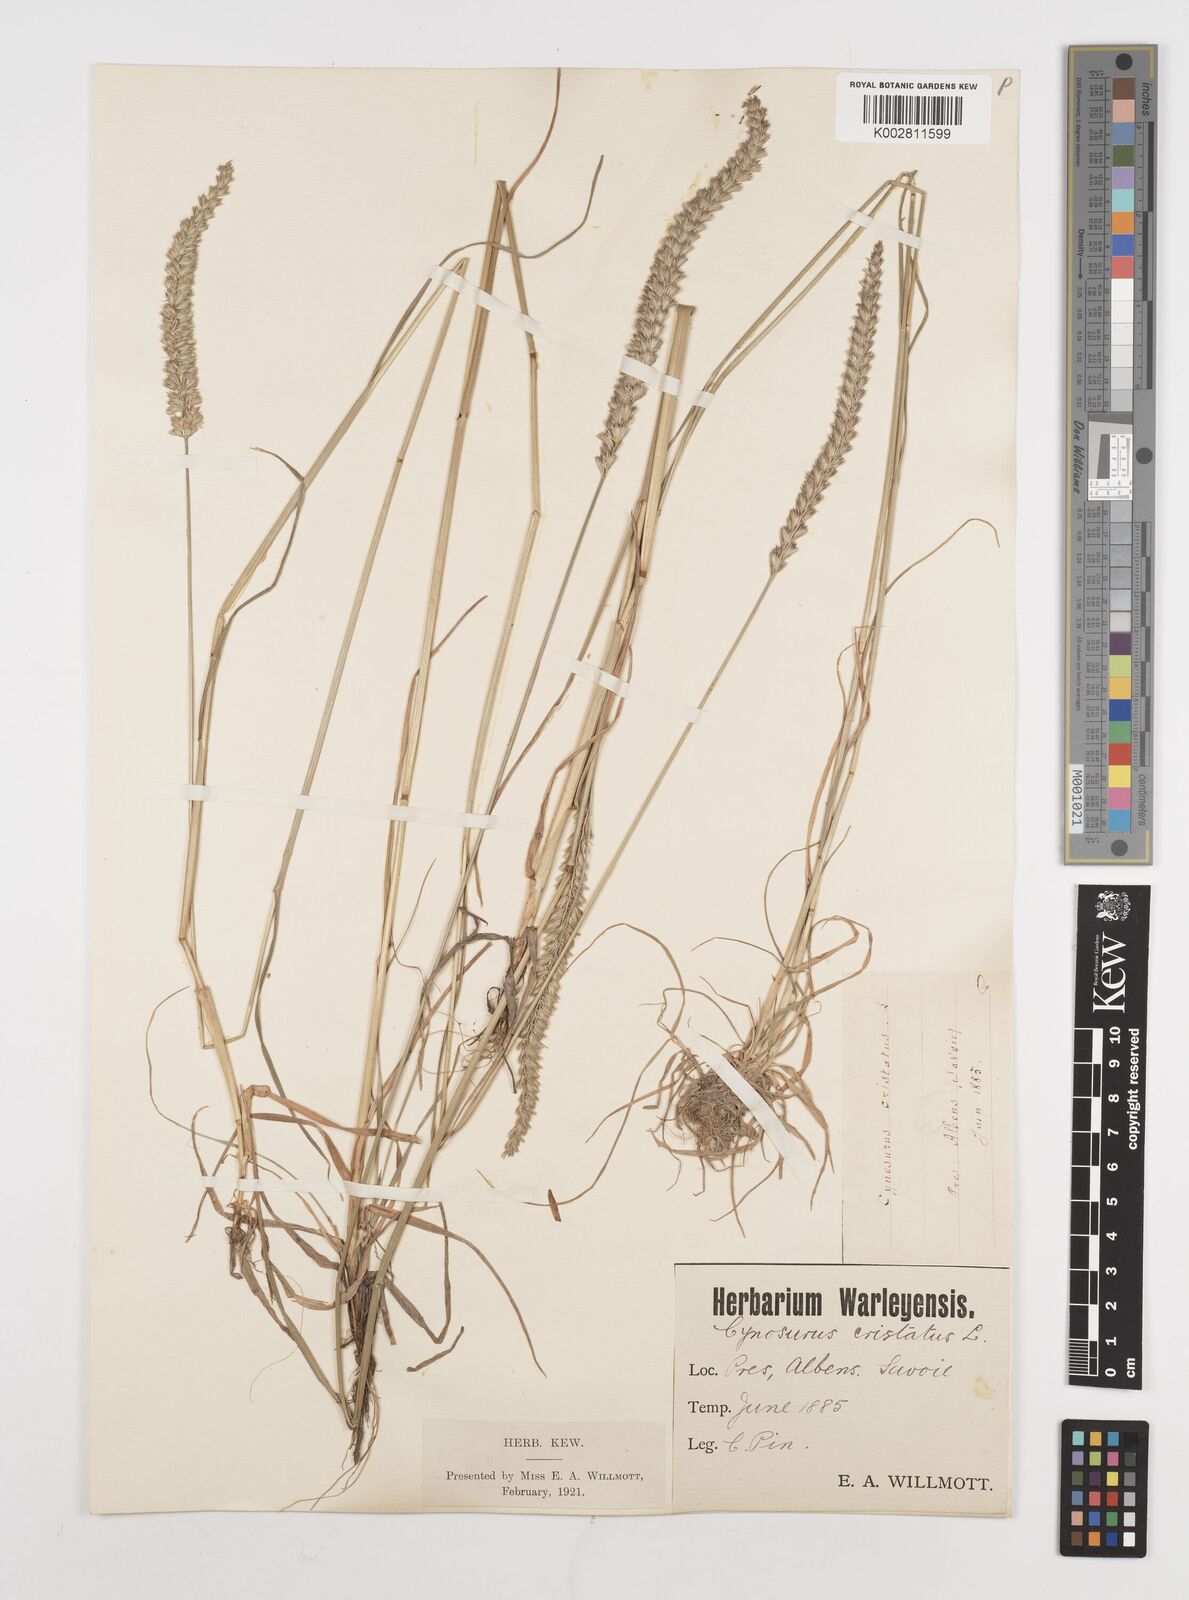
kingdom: Plantae
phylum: Tracheophyta
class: Liliopsida
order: Poales
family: Poaceae
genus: Cynosurus
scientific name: Cynosurus cristatus
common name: Crested dog's-tail
